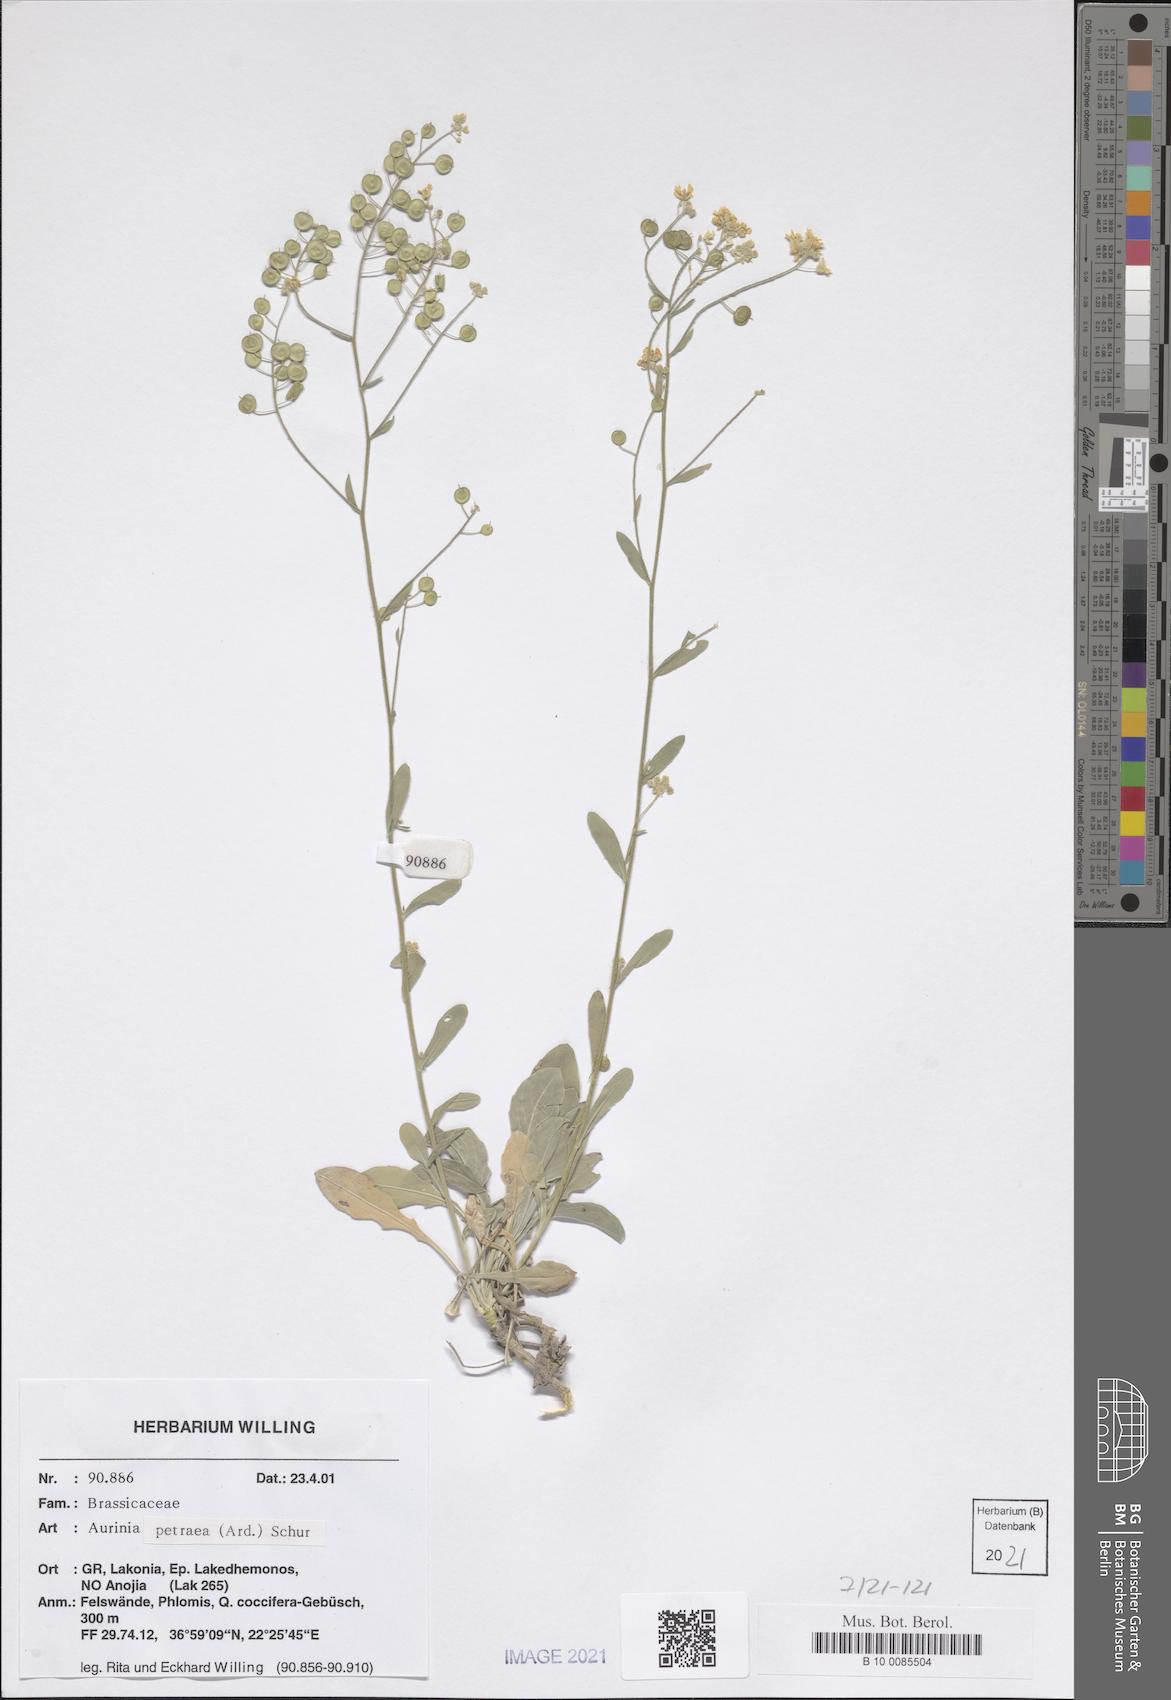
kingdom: Plantae
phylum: Tracheophyta
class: Magnoliopsida
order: Brassicales
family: Brassicaceae
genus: Aurinia
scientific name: Aurinia petraea
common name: Goldentuft
